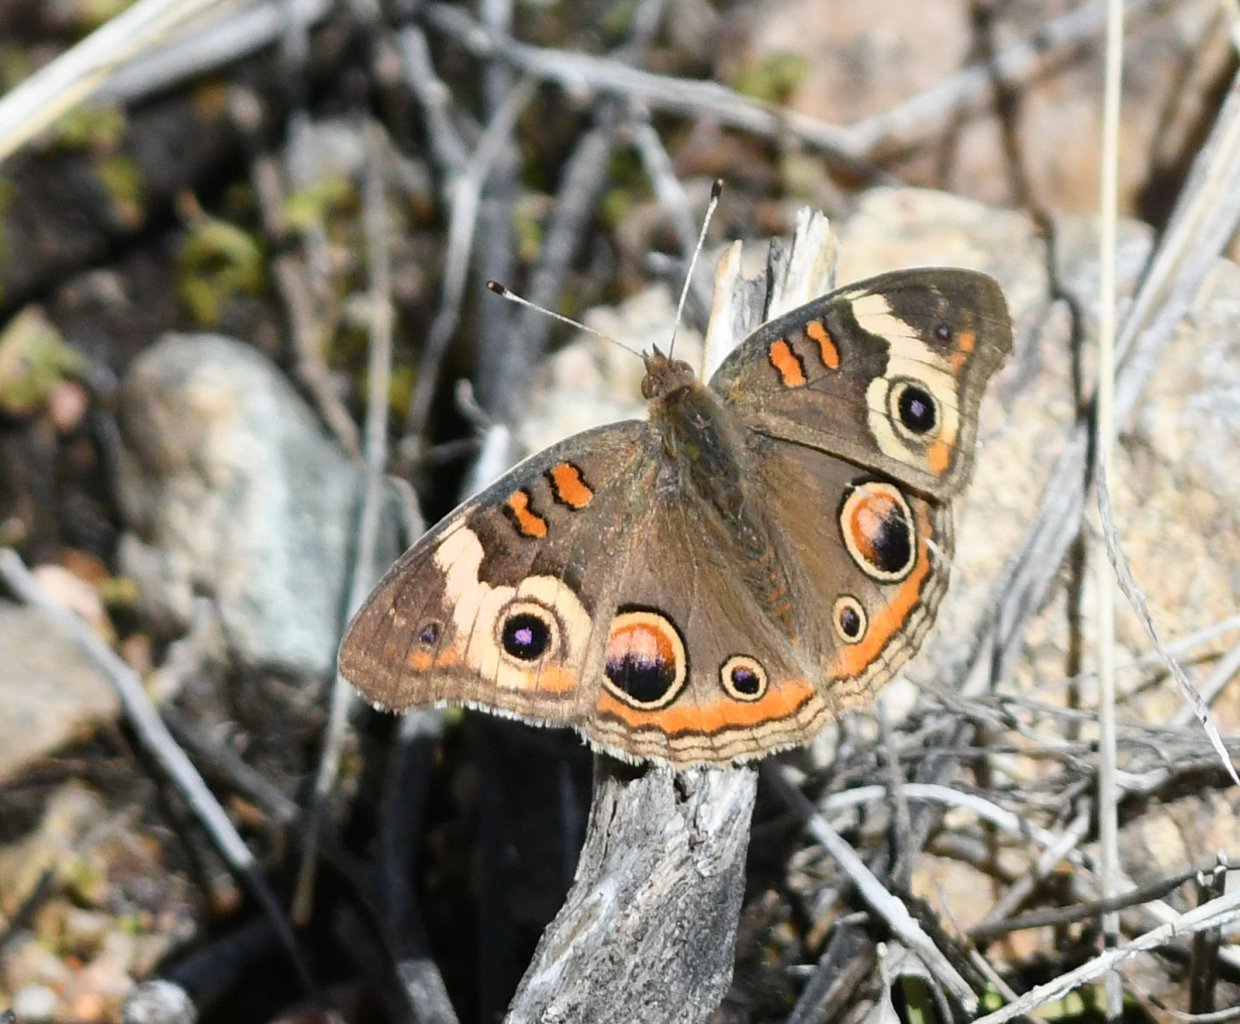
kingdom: Animalia
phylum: Arthropoda
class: Insecta
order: Lepidoptera
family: Nymphalidae
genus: Junonia
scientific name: Junonia coenia
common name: Common Buckeye
